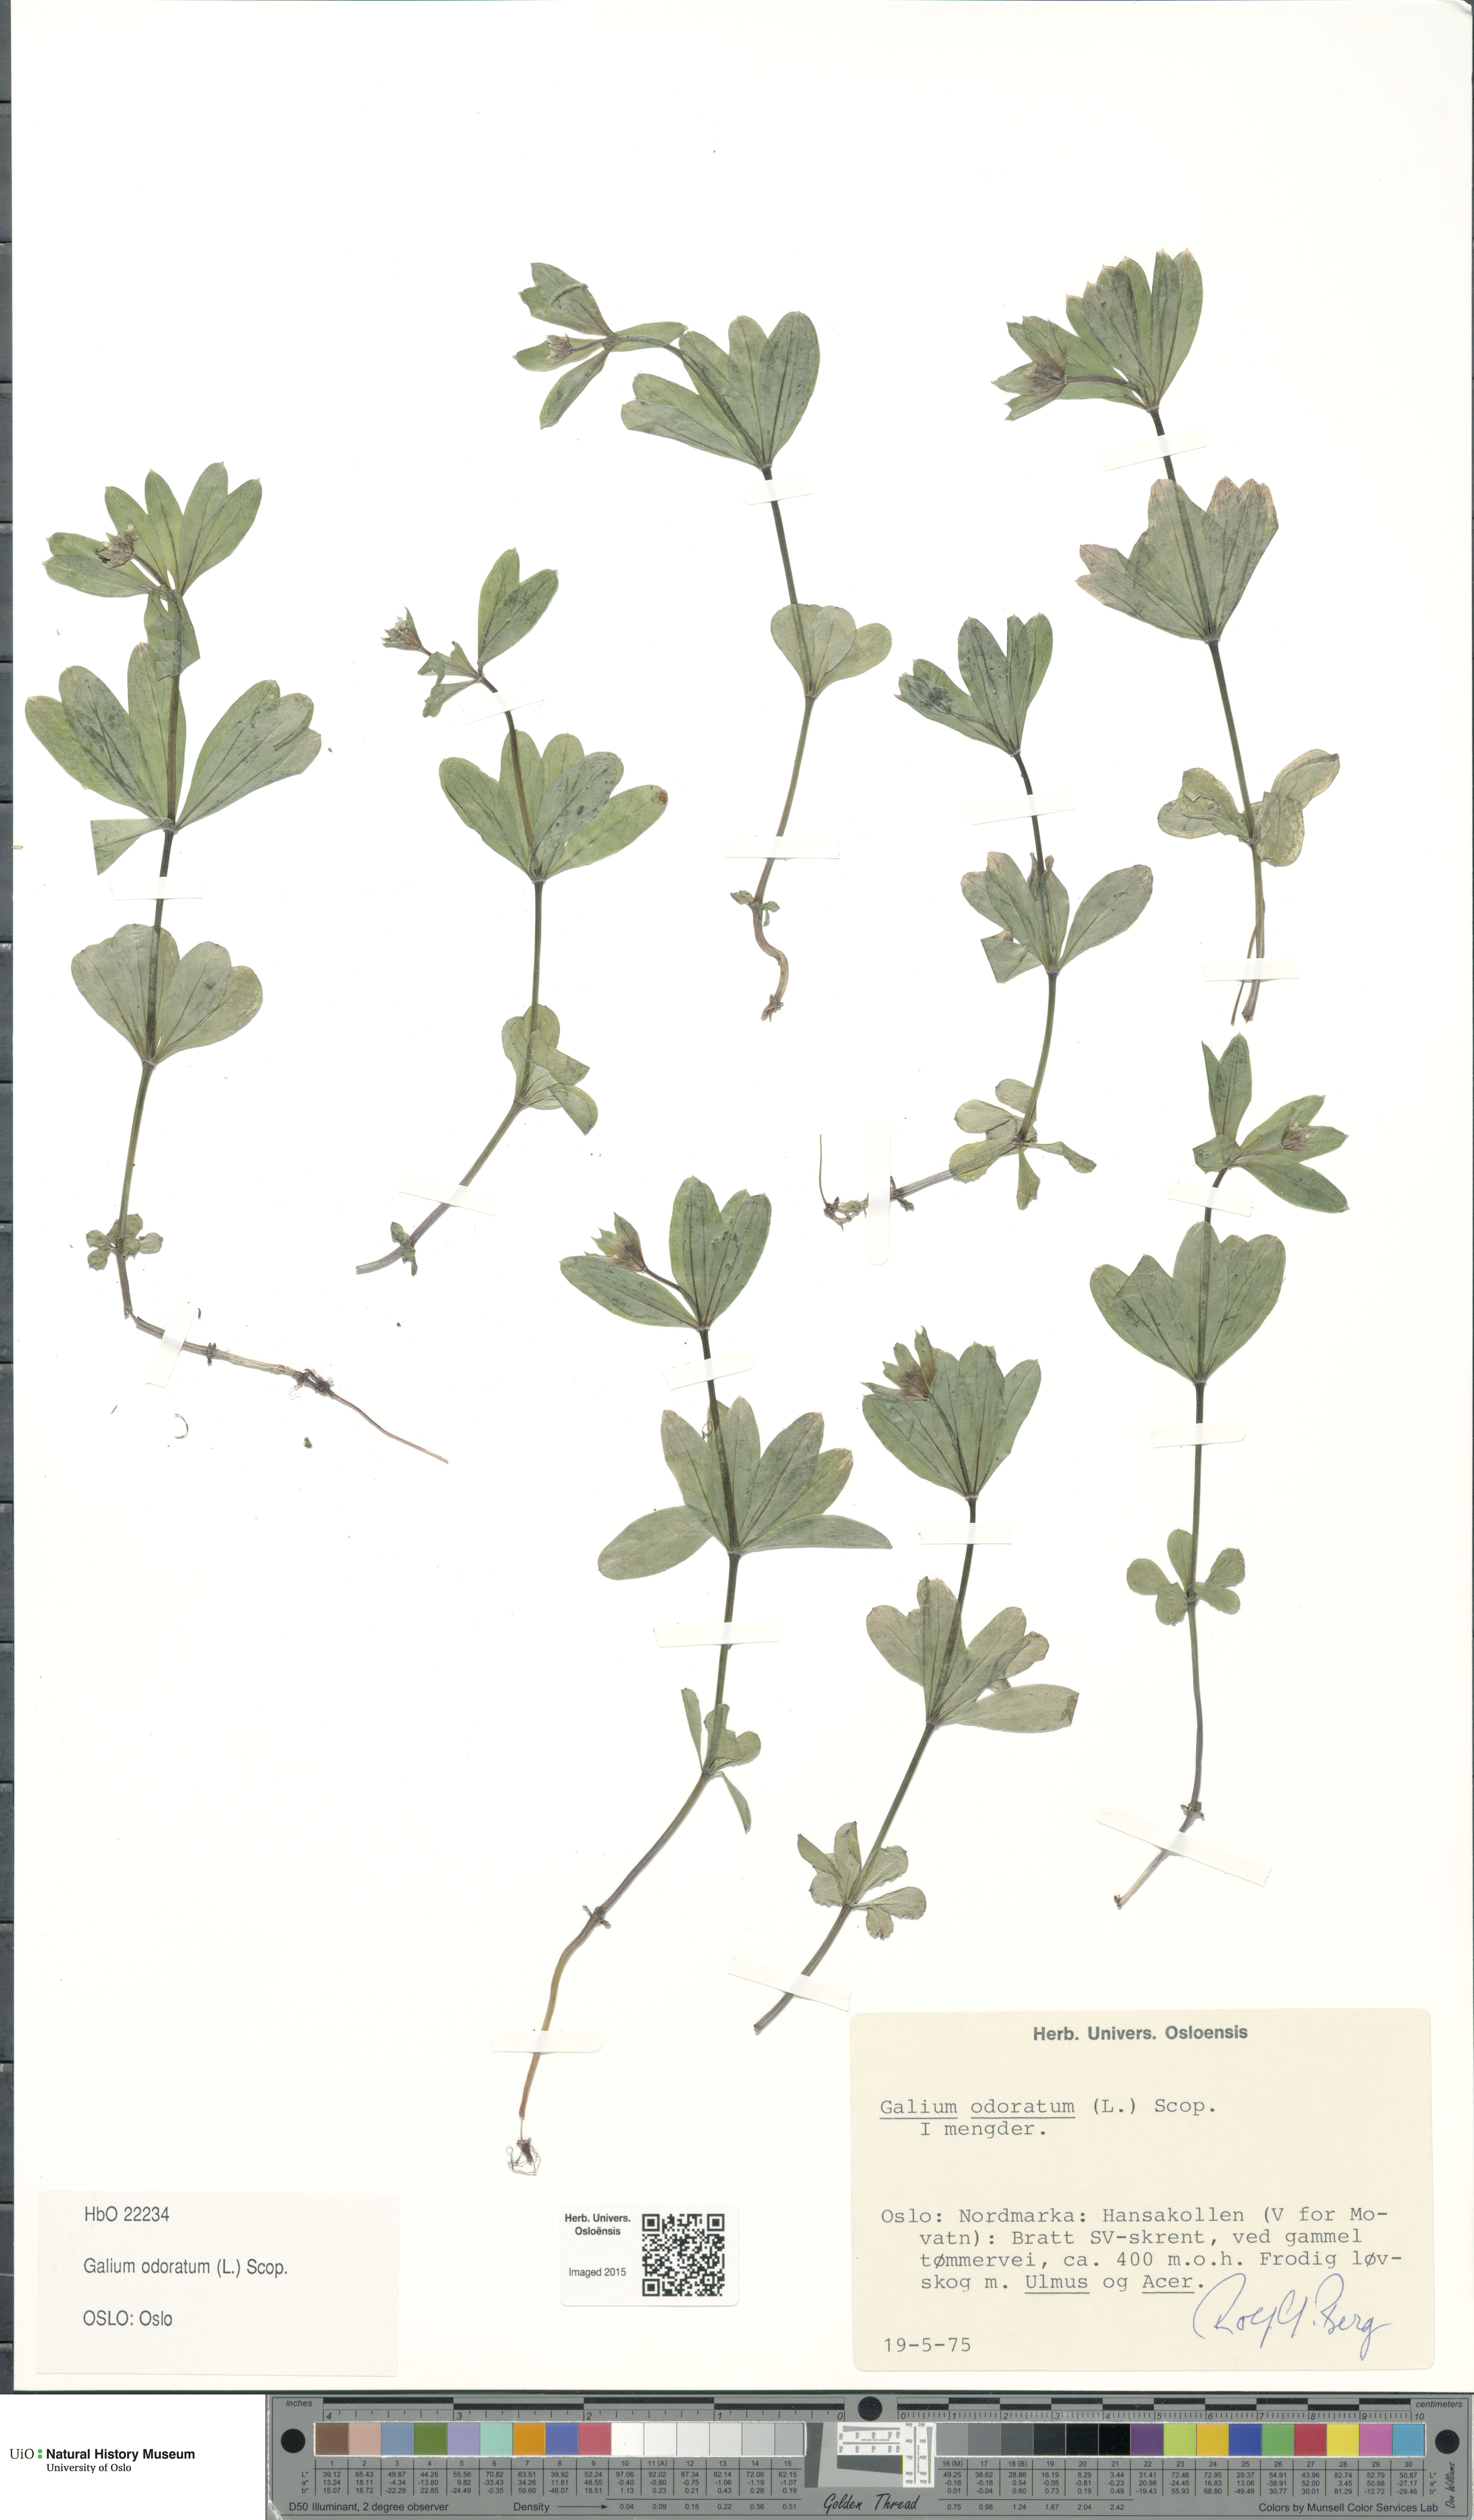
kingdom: Plantae
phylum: Tracheophyta
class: Magnoliopsida
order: Gentianales
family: Rubiaceae
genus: Galium
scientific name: Galium odoratum
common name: Sweet woodruff
